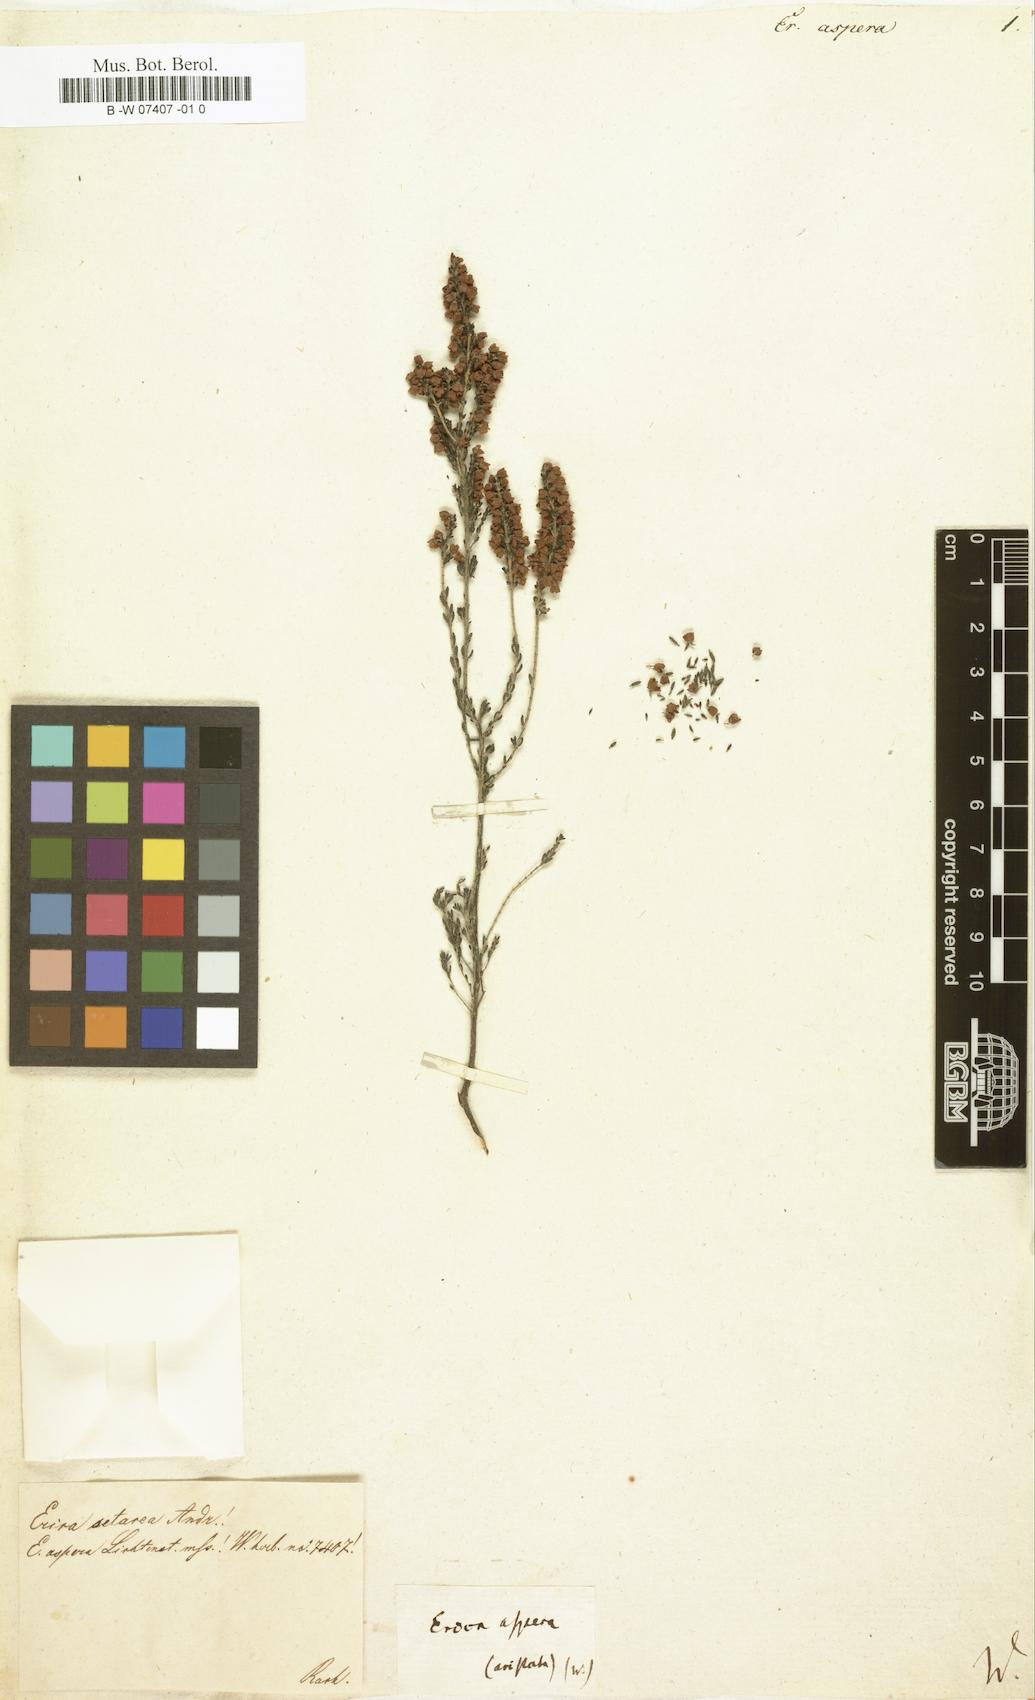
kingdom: Plantae
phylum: Tracheophyta
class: Magnoliopsida
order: Ericales
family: Ericaceae
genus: Erica
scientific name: Erica sparmannii
